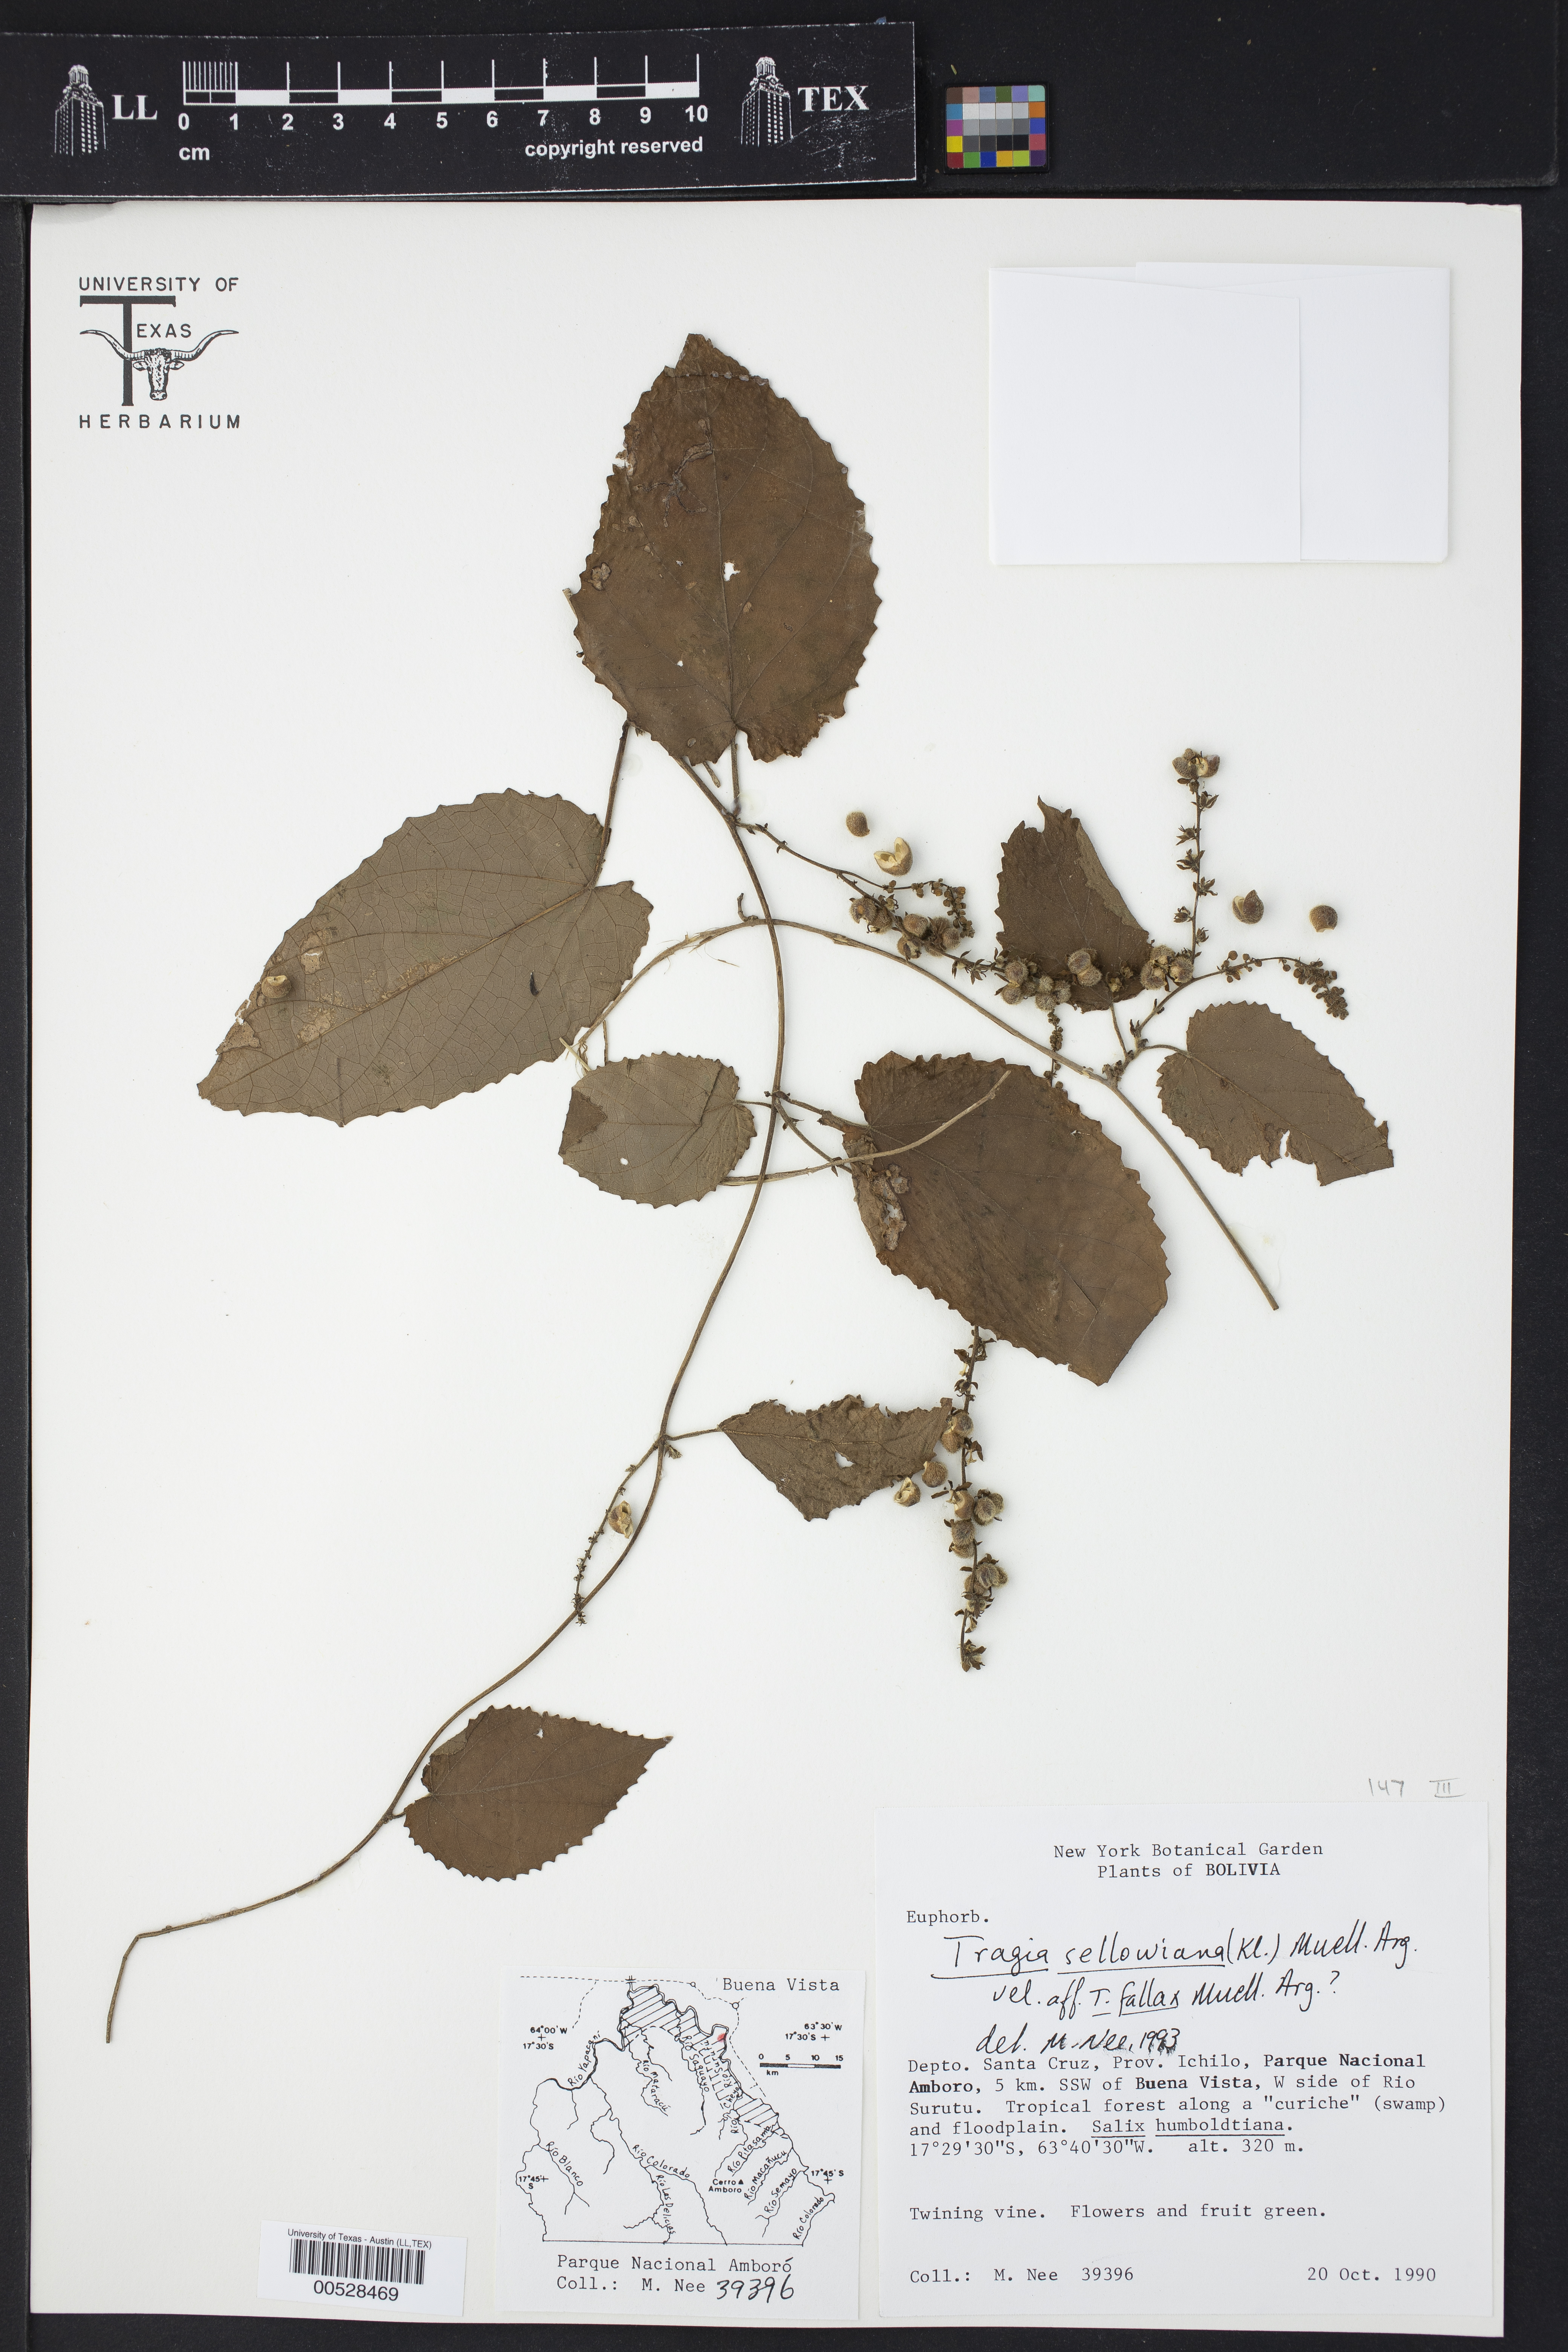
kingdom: Plantae
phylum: Tracheophyta
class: Magnoliopsida
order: Malpighiales
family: Euphorbiaceae
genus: Bia
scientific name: Bia alienata
